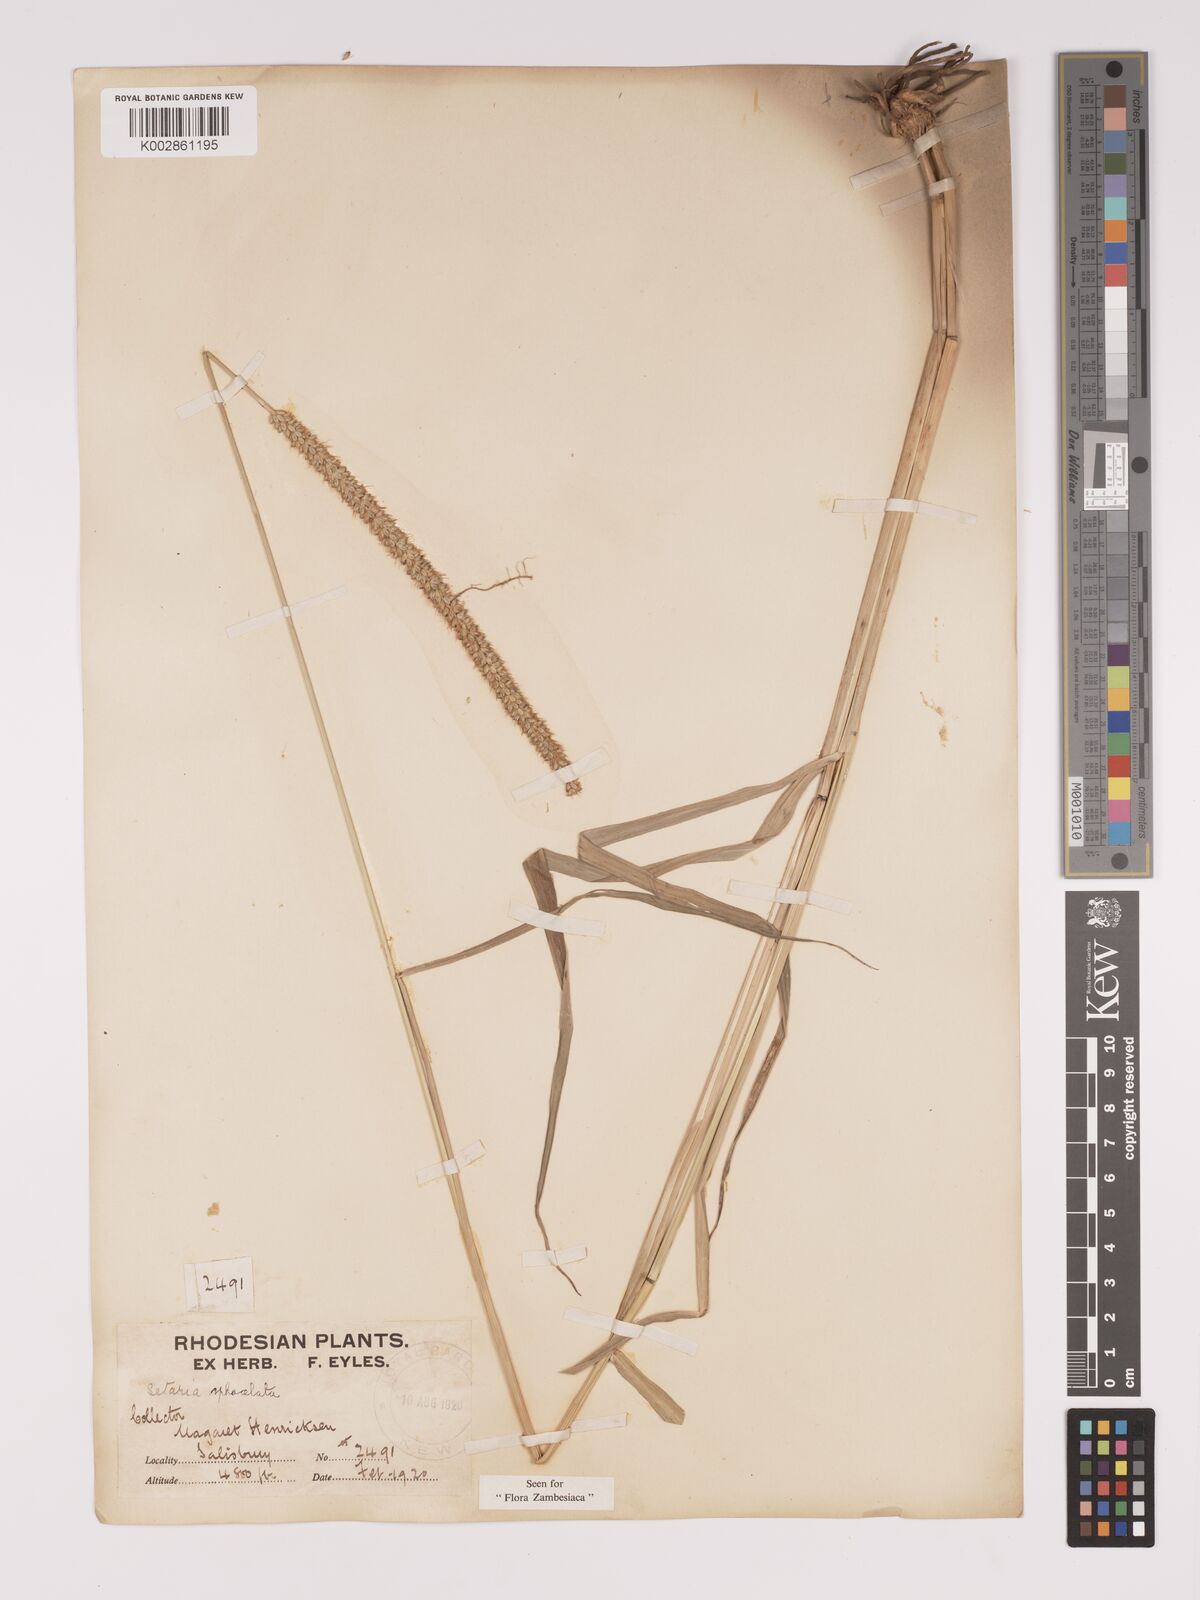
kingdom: Plantae
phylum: Tracheophyta
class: Liliopsida
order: Poales
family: Poaceae
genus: Setaria
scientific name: Setaria sphacelata
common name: African bristlegrass
